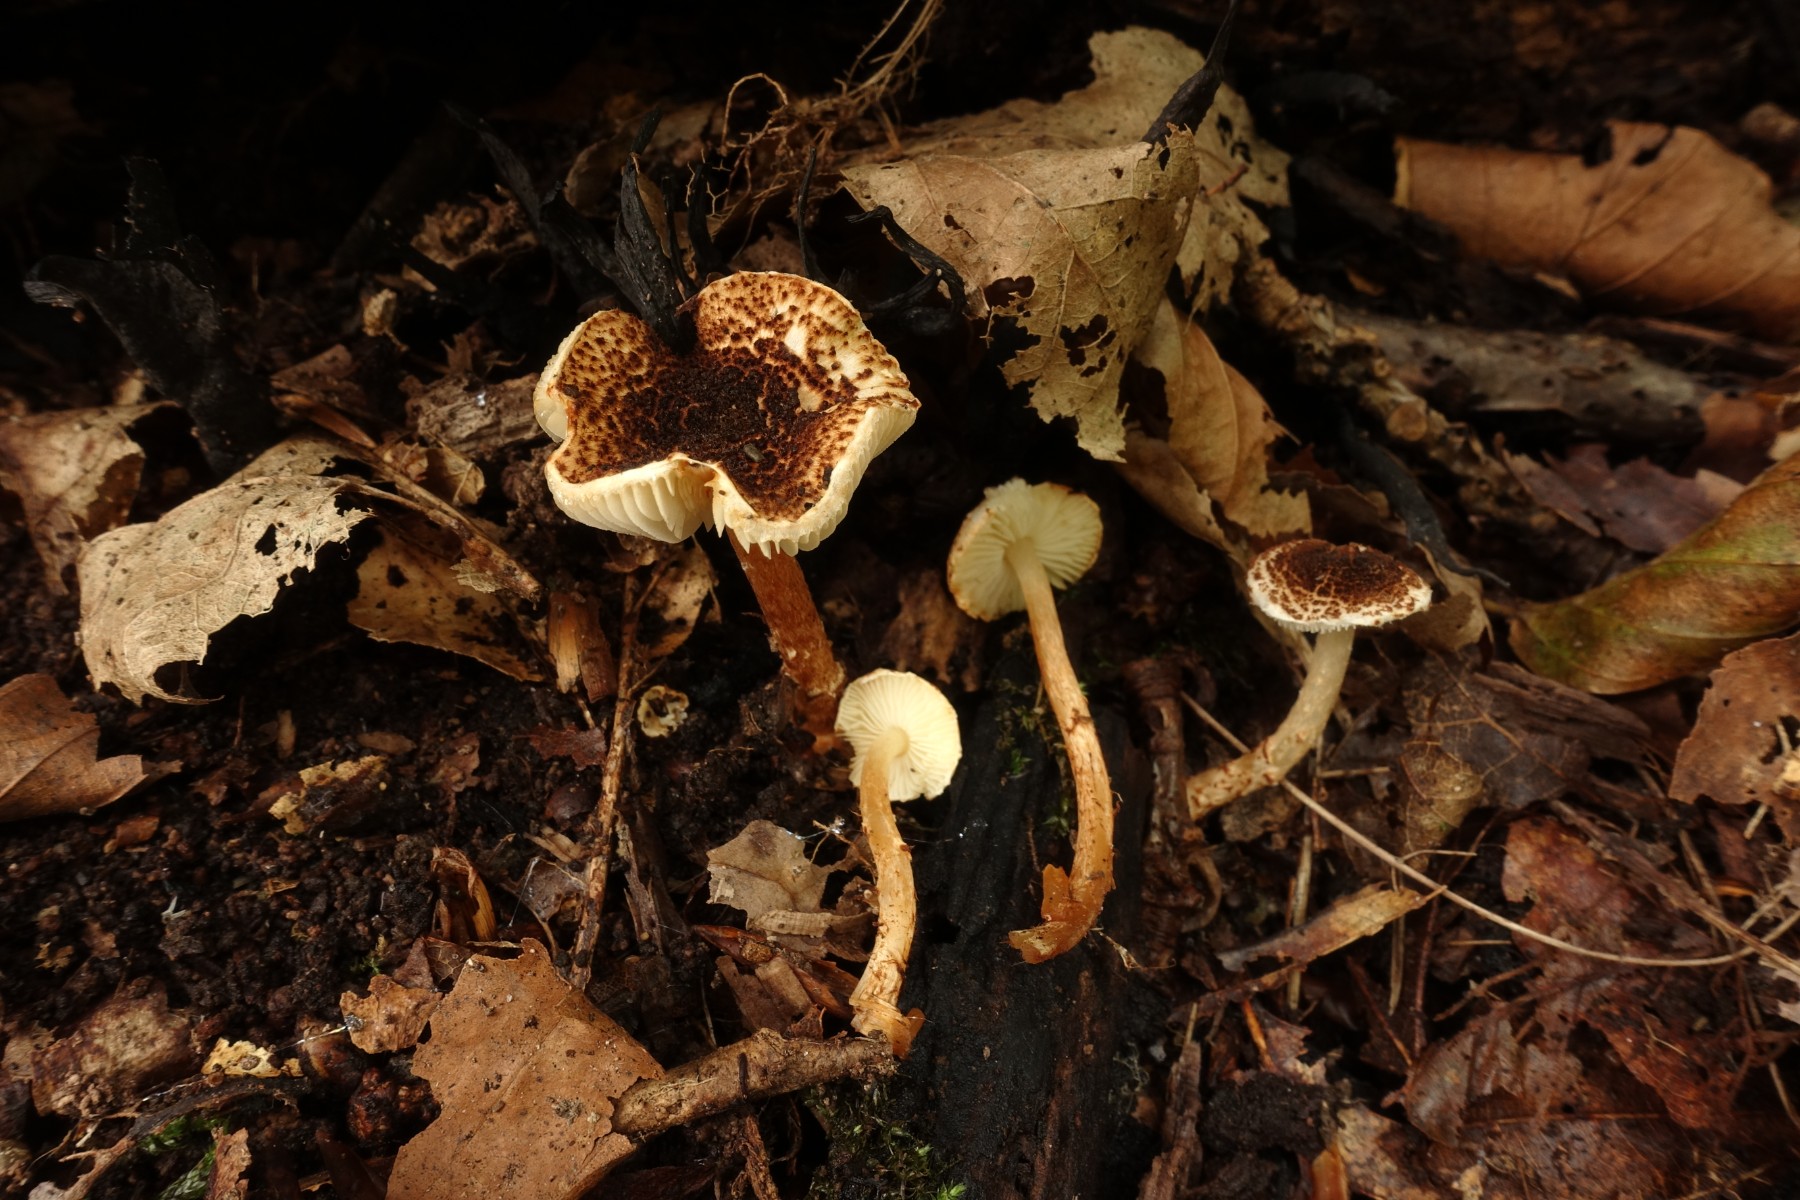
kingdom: Fungi
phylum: Basidiomycota
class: Agaricomycetes
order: Agaricales
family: Agaricaceae
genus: Lepiota
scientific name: Lepiota castanea
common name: kastaniebrun parasolhat
